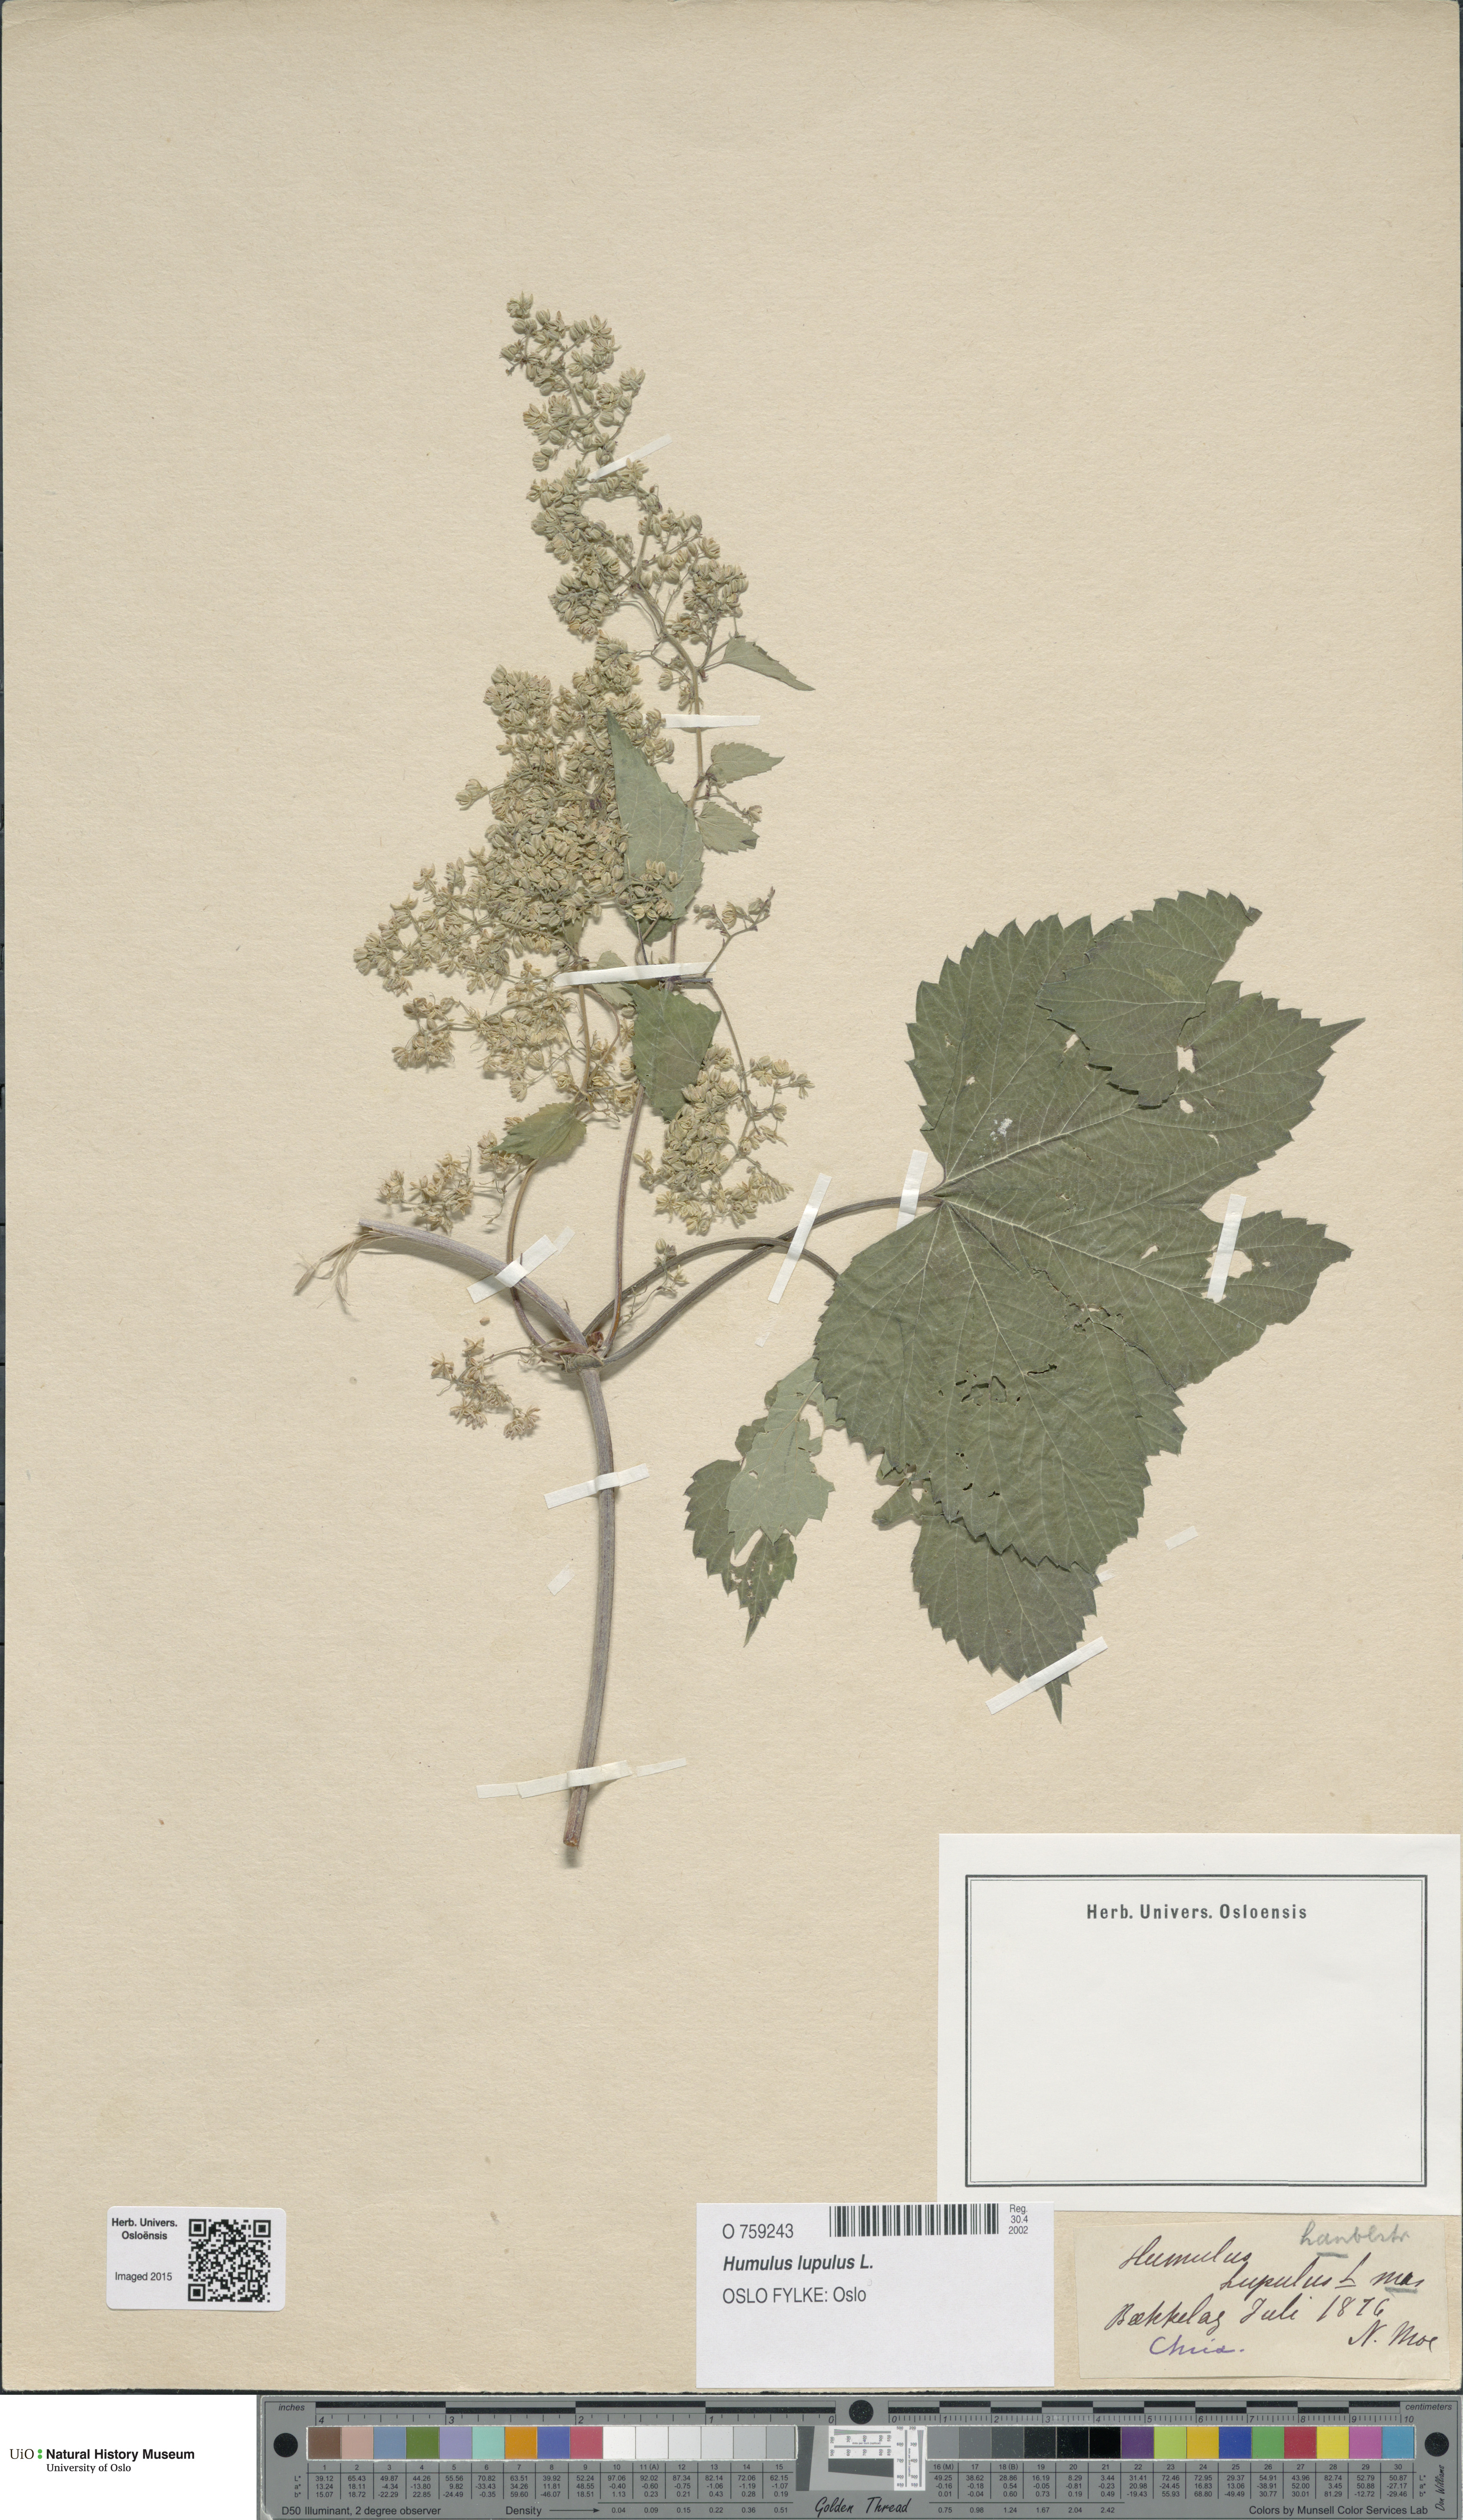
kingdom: Plantae
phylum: Tracheophyta
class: Magnoliopsida
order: Rosales
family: Cannabaceae
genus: Humulus
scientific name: Humulus lupulus
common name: Hop
